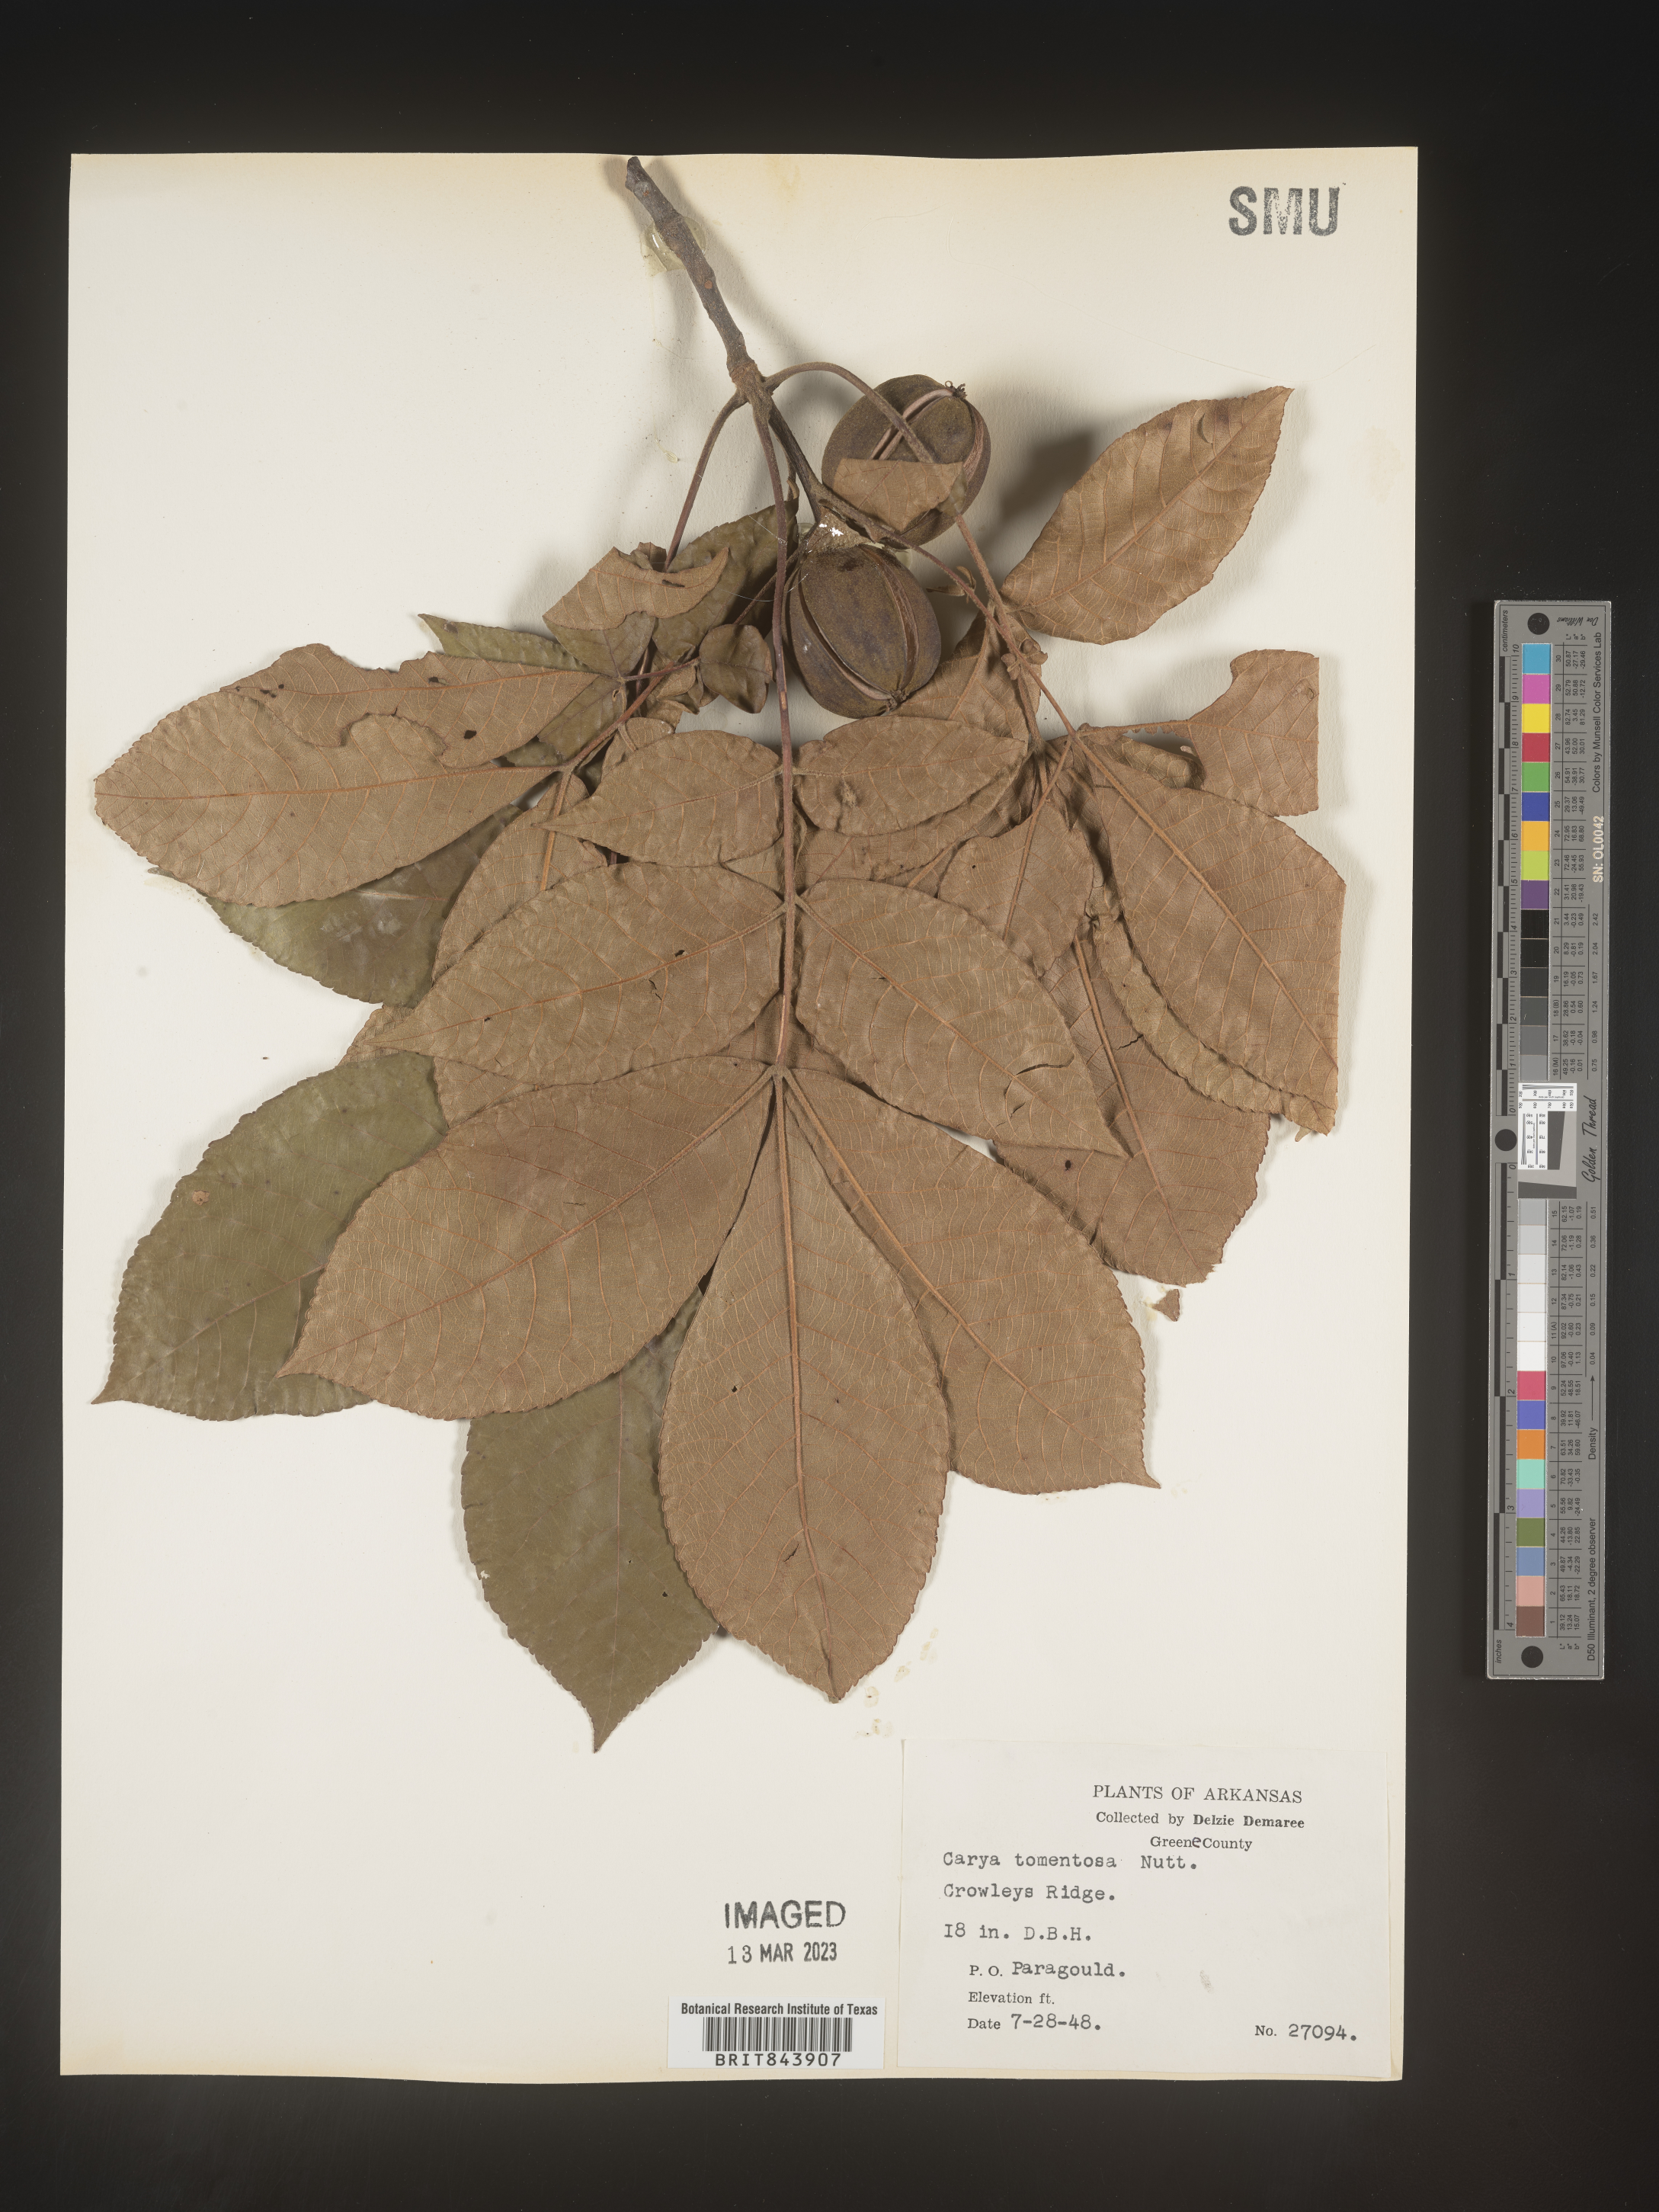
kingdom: Plantae
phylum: Tracheophyta
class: Magnoliopsida
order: Fagales
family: Juglandaceae
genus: Carya
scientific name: Carya alba
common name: Mockernut hickory
